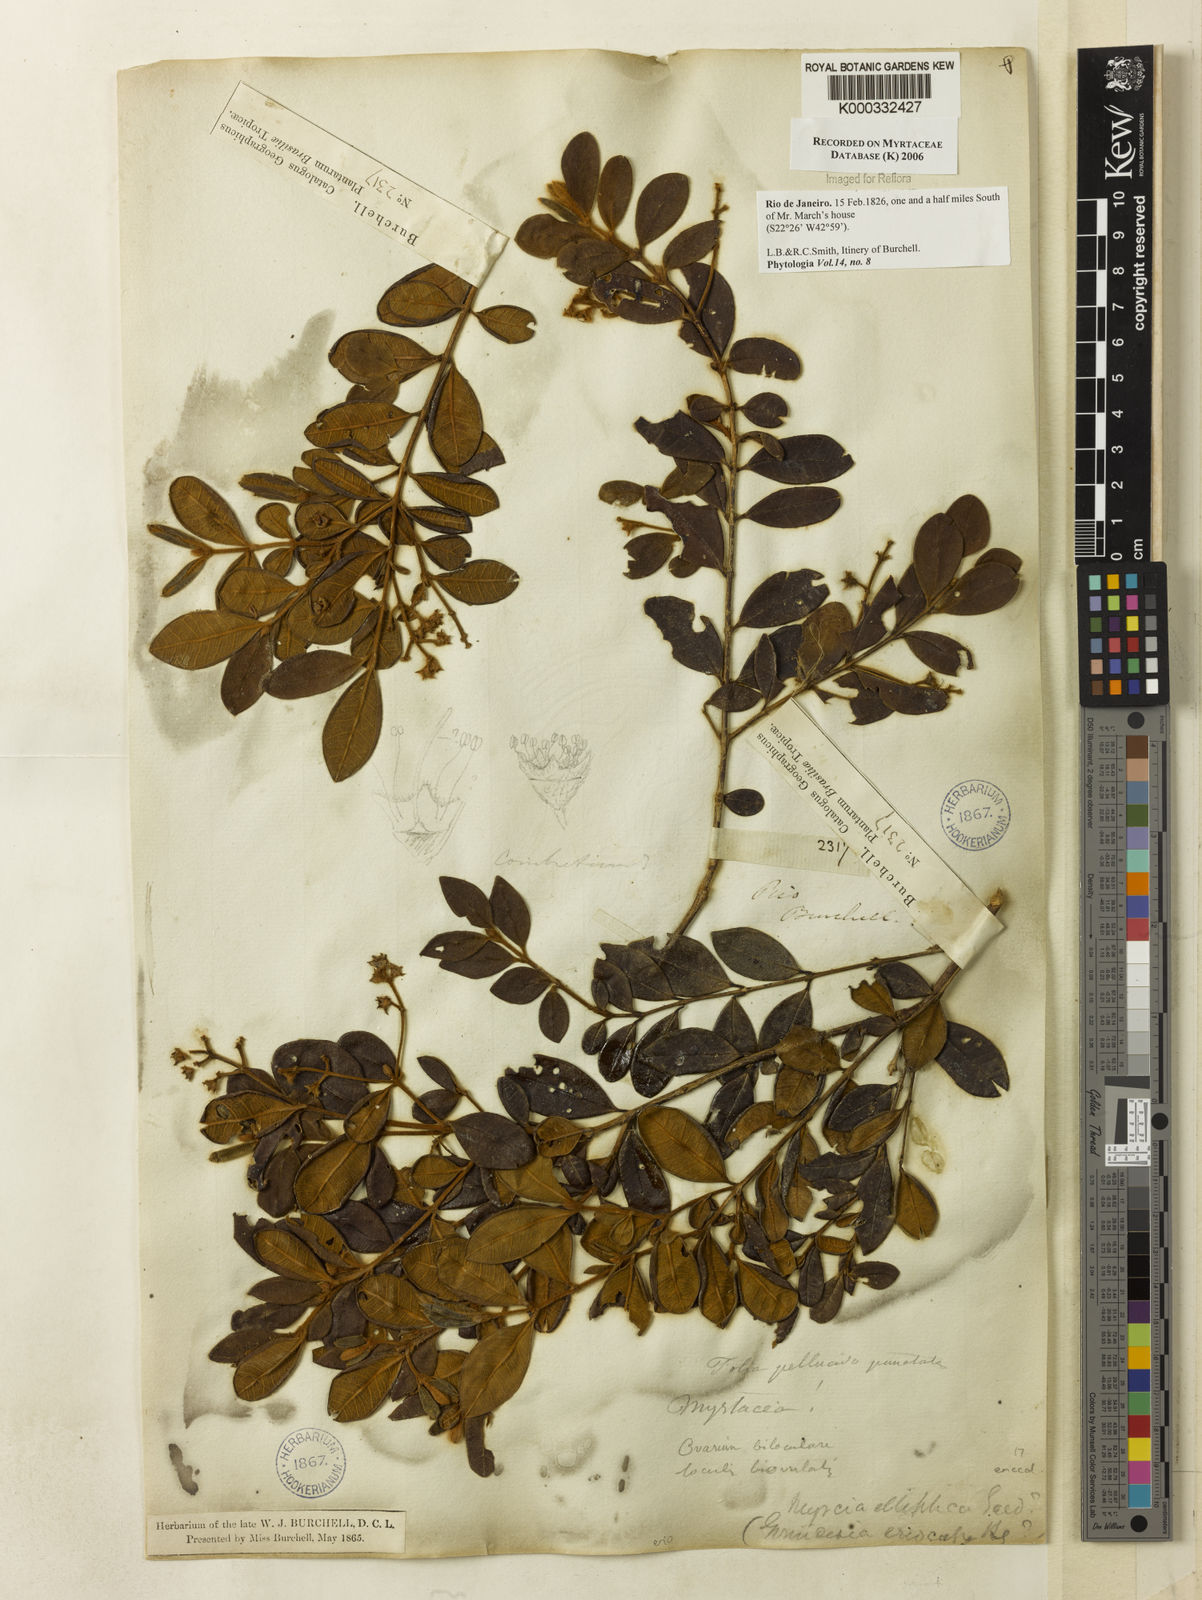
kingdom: Plantae
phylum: Tracheophyta
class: Magnoliopsida
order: Myrtales
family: Myrtaceae
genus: Myrcia
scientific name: Myrcia eriocalyx
